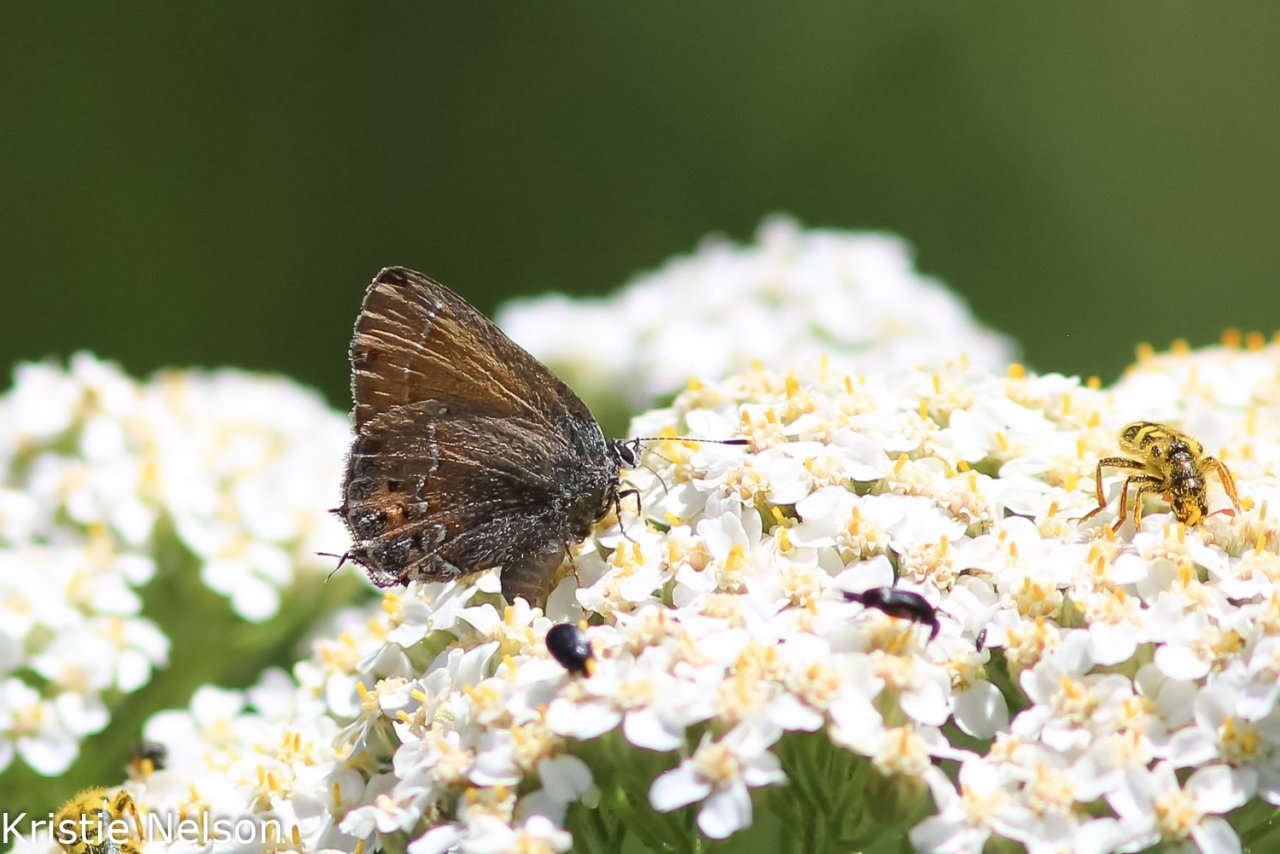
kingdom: Animalia
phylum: Arthropoda
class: Insecta
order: Lepidoptera
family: Lycaenidae
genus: Mitoura
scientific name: Mitoura gryneus
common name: Juniper Hairstreak
